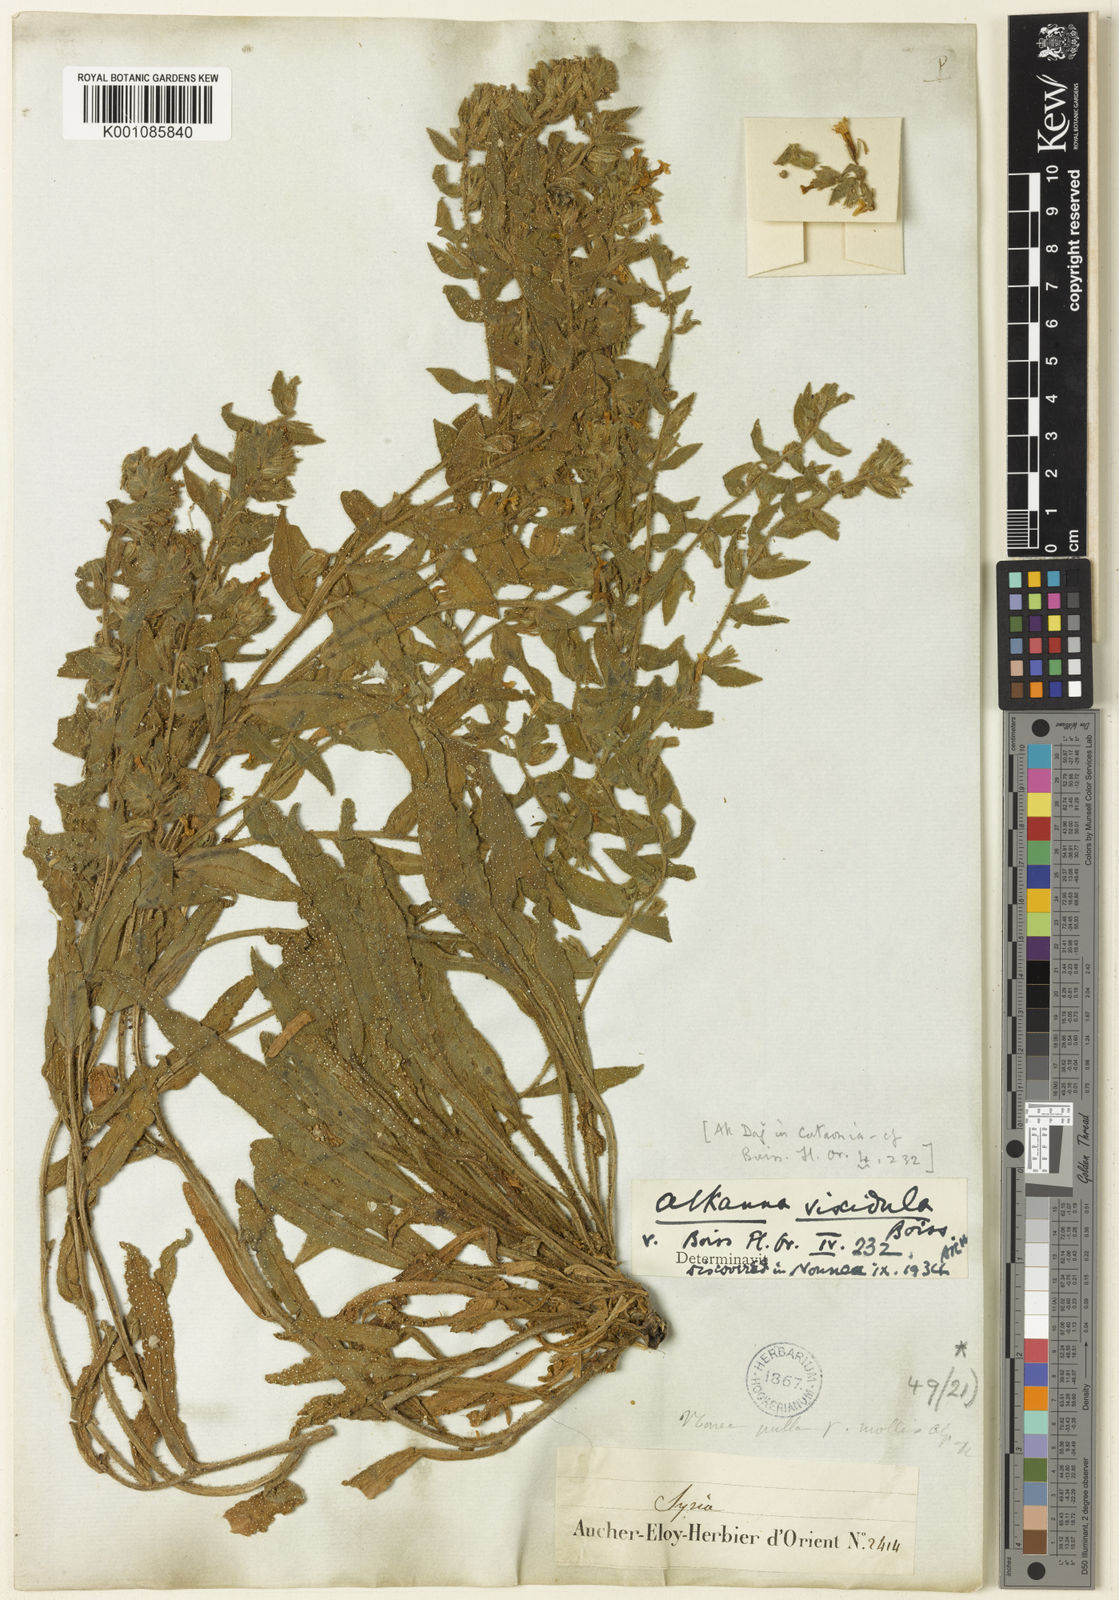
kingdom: Plantae
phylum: Tracheophyta
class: Magnoliopsida
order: Boraginales
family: Boraginaceae
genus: Alkanna
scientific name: Alkanna viscidula
